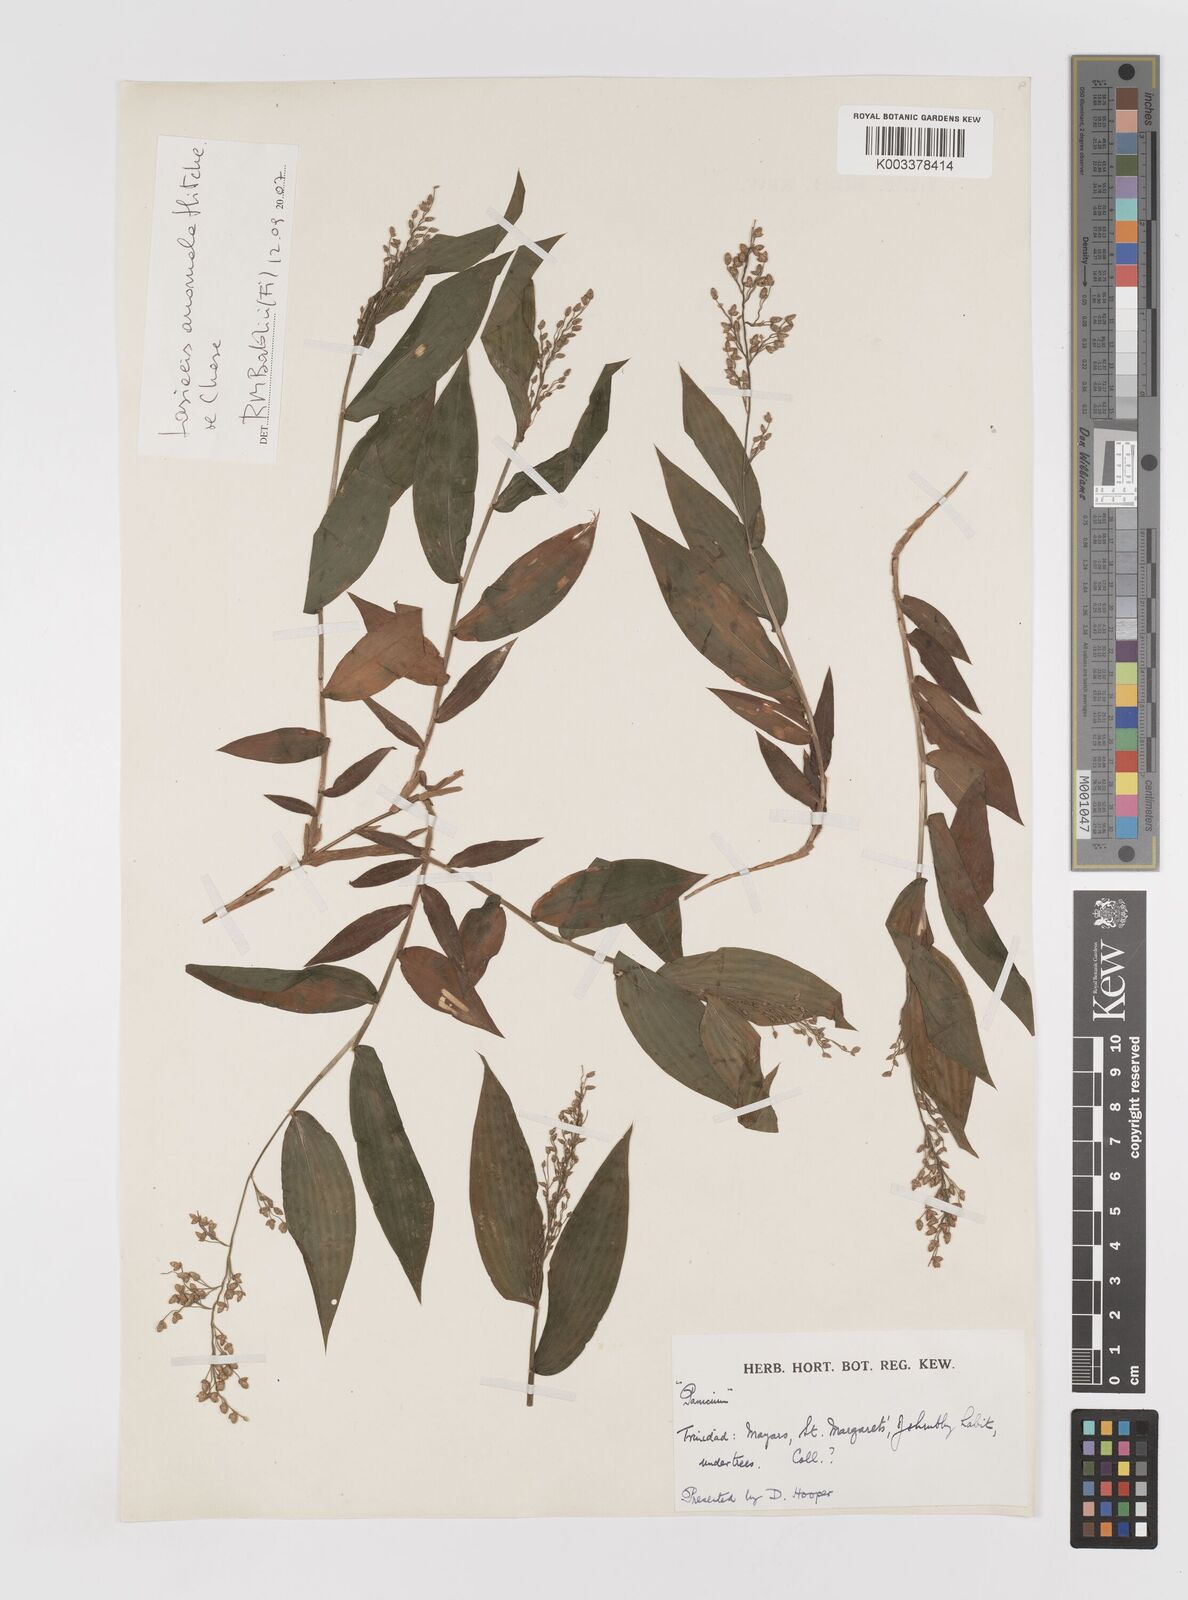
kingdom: Plantae
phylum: Tracheophyta
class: Liliopsida
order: Poales
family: Poaceae
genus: Lasiacis
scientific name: Lasiacis anomala
